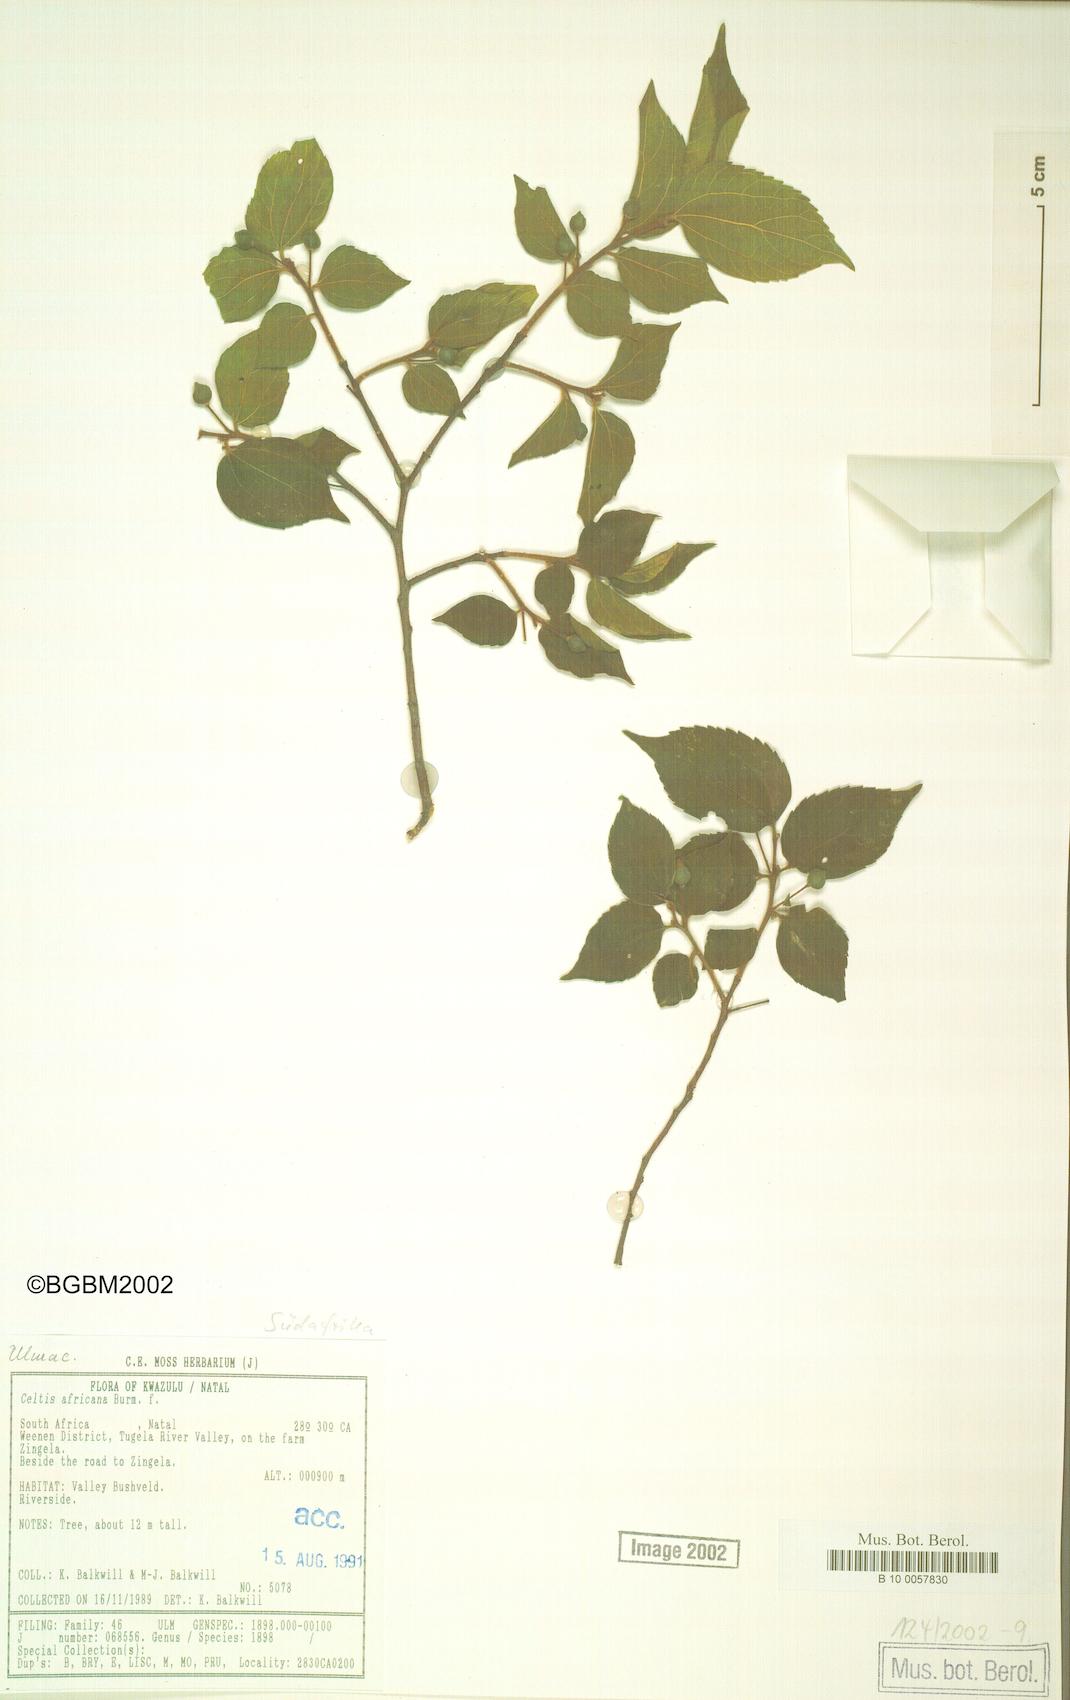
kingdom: Plantae
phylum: Tracheophyta
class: Magnoliopsida
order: Rosales
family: Cannabaceae
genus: Celtis
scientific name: Celtis africana
